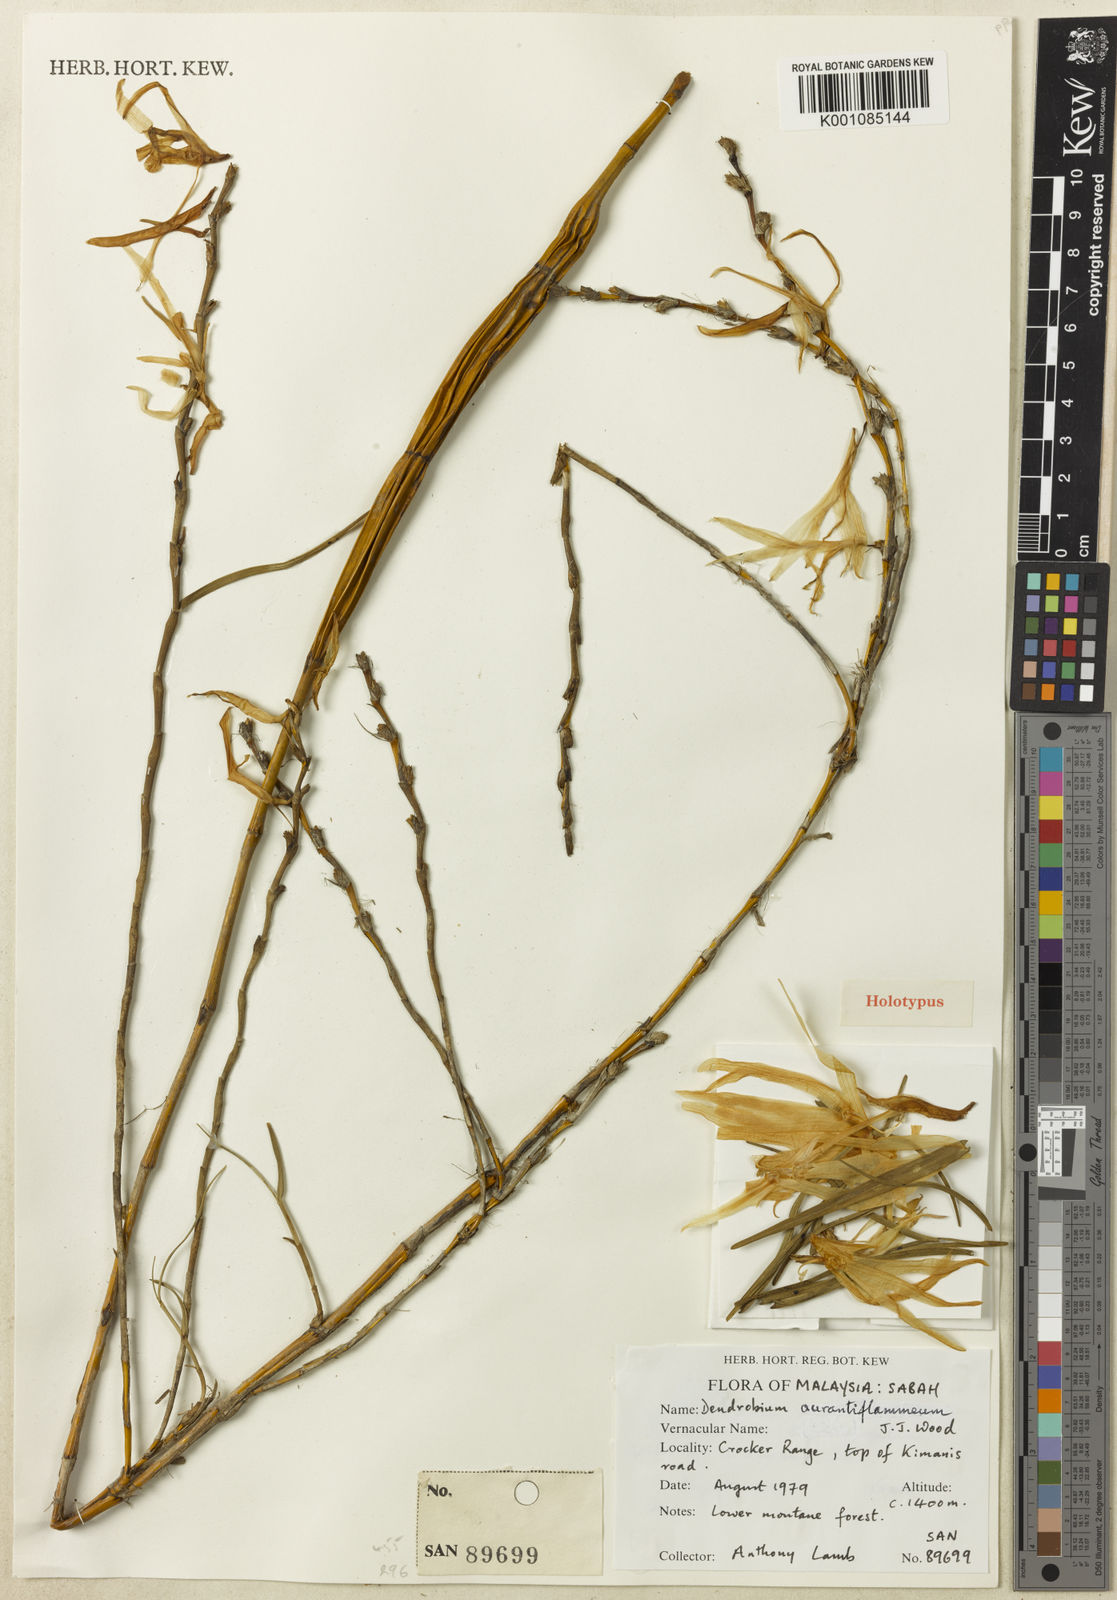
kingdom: Plantae
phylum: Tracheophyta
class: Liliopsida
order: Asparagales
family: Orchidaceae
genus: Dendrobium
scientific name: Dendrobium aurantiiflammeum
